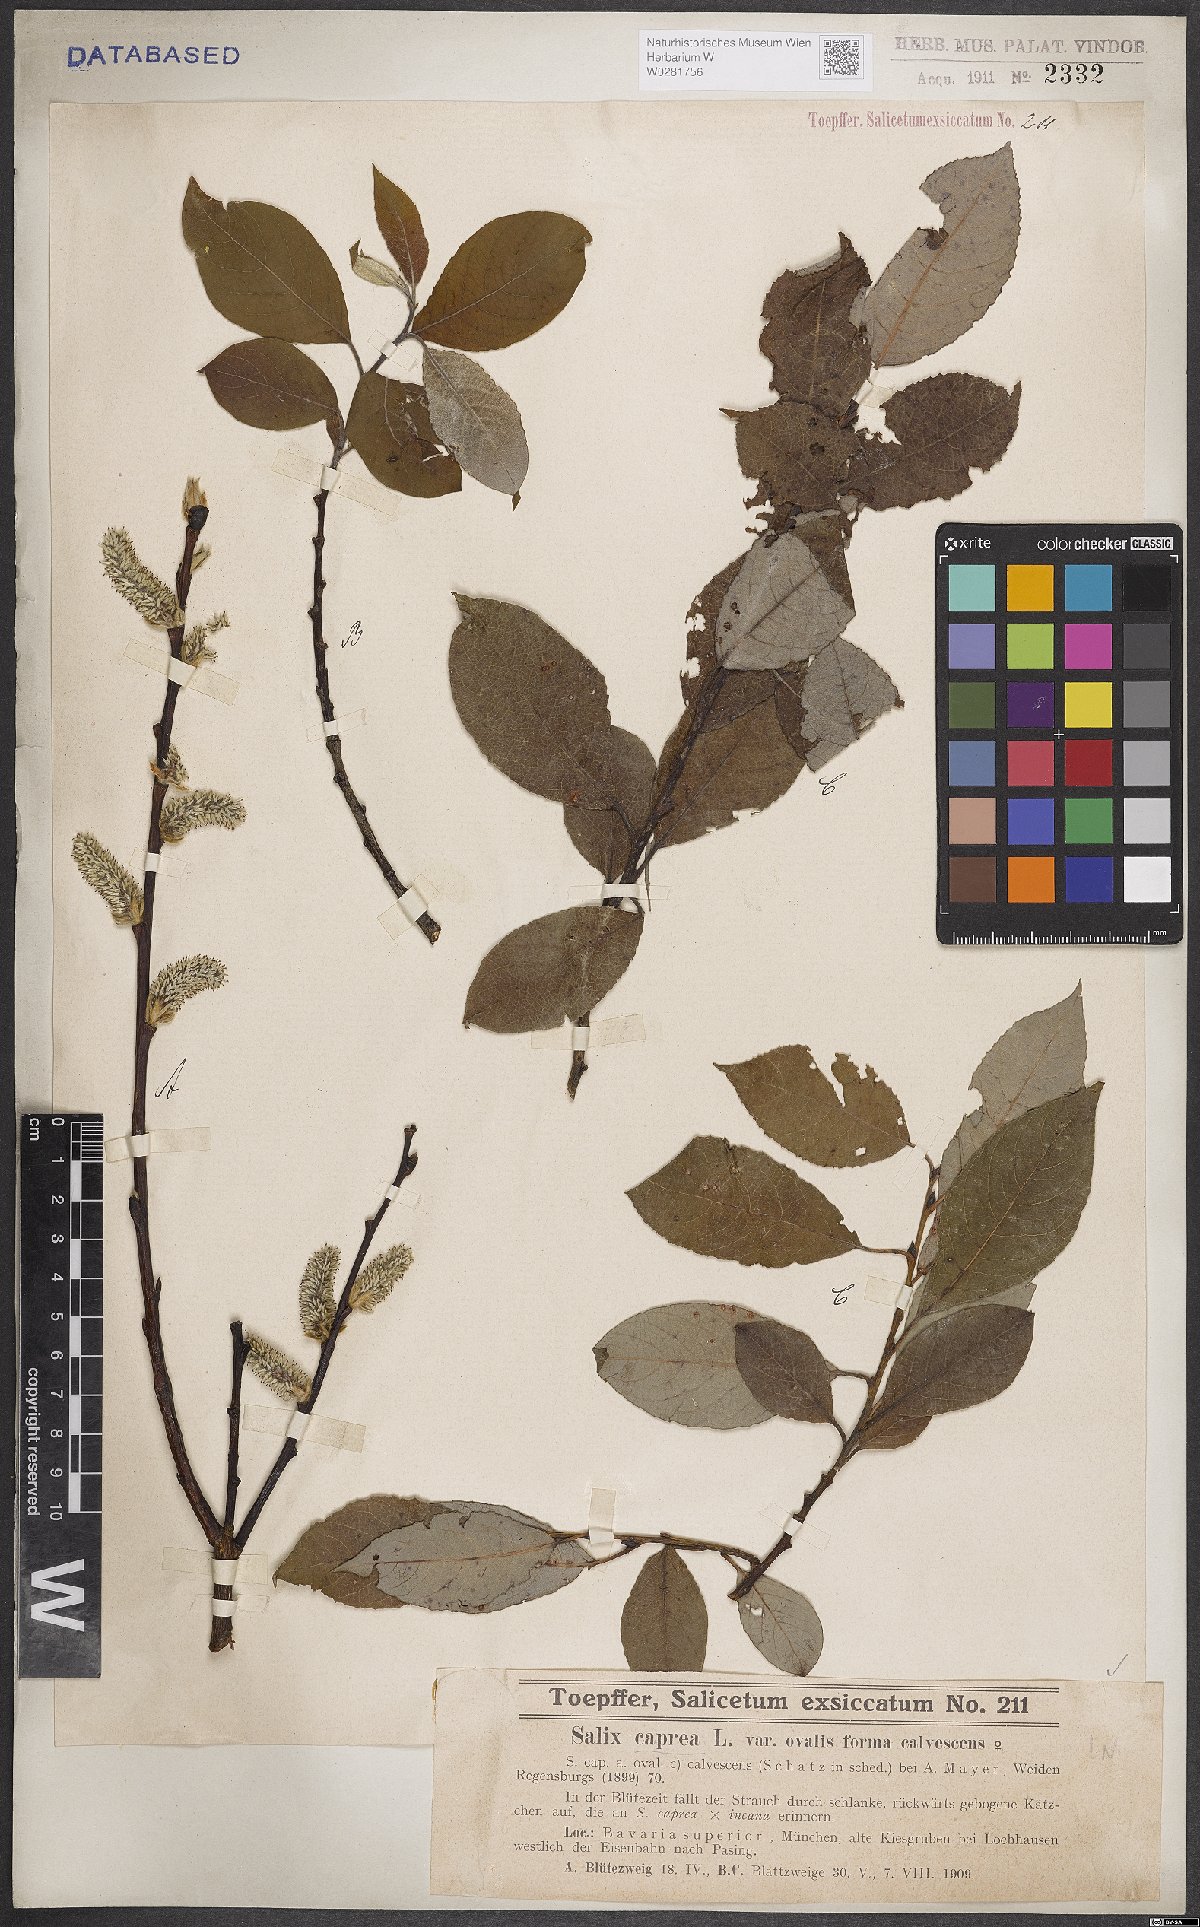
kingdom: Plantae
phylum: Tracheophyta
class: Magnoliopsida
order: Malpighiales
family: Salicaceae
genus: Salix
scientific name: Salix caprea
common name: Goat willow
